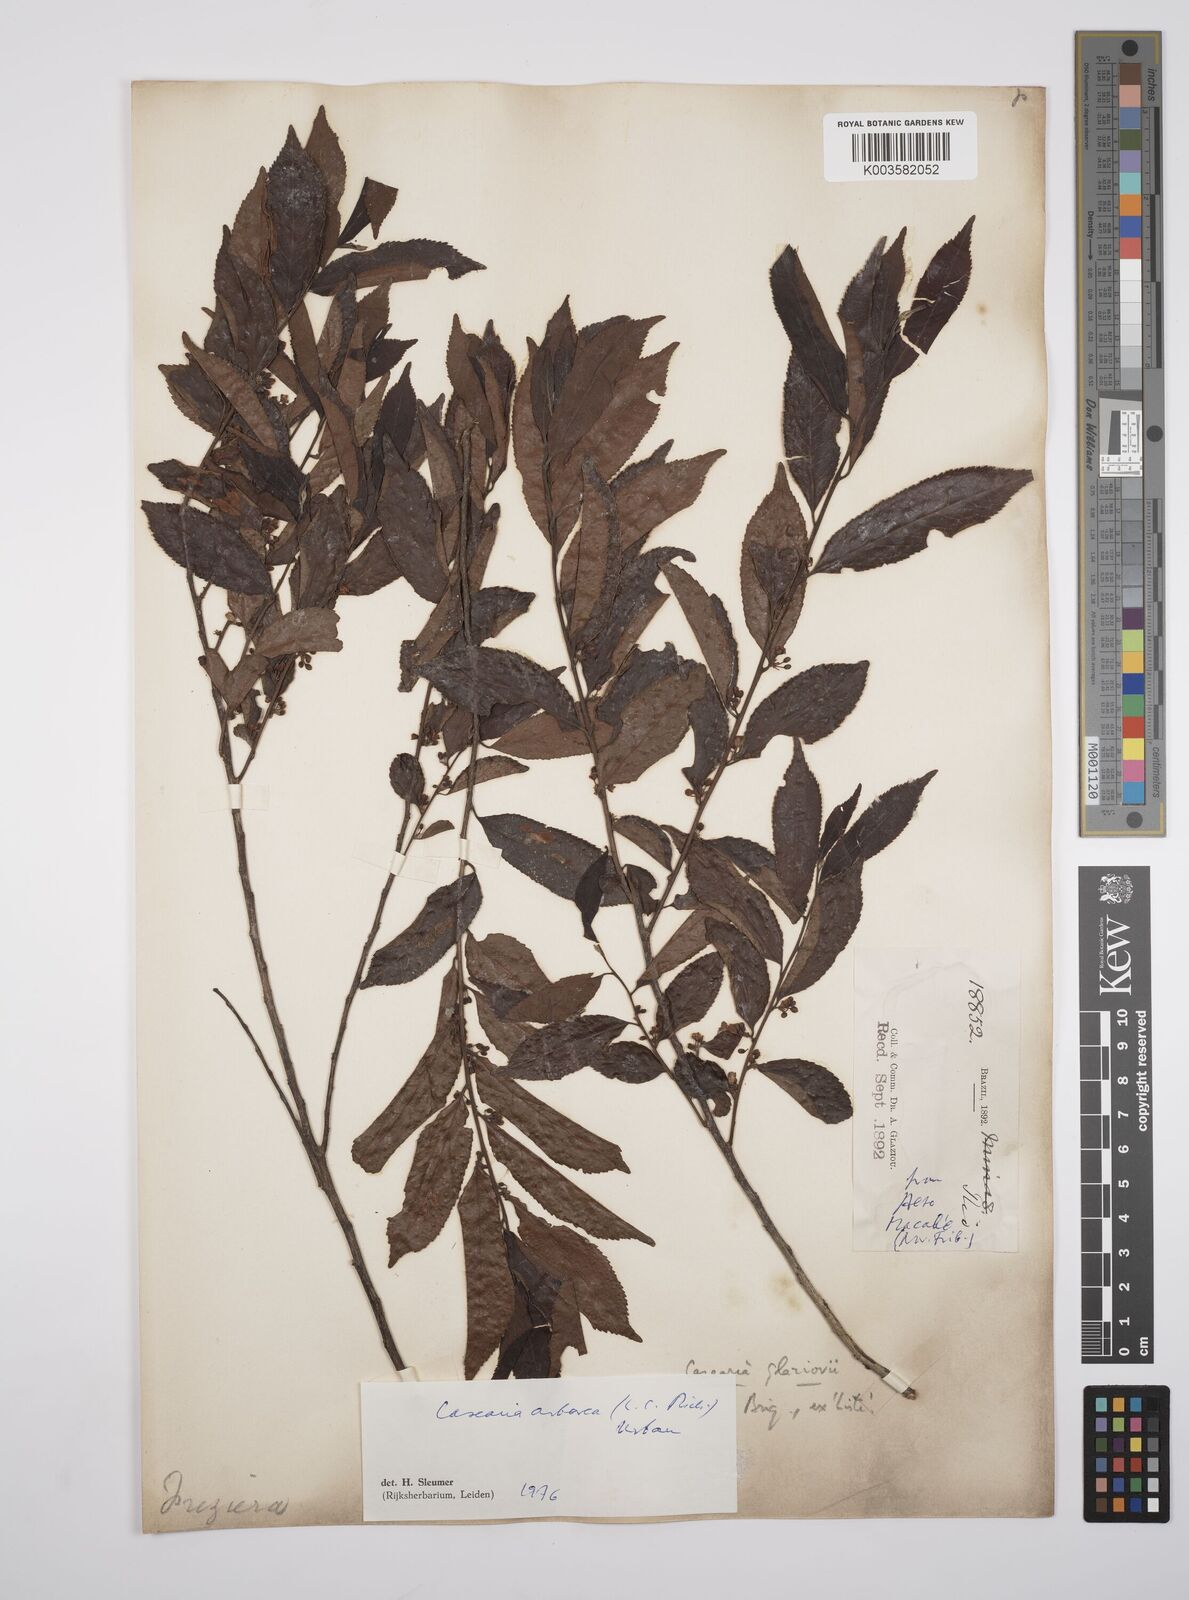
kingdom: Plantae
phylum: Tracheophyta
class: Magnoliopsida
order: Malpighiales
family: Salicaceae
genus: Casearia
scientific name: Casearia arborea
